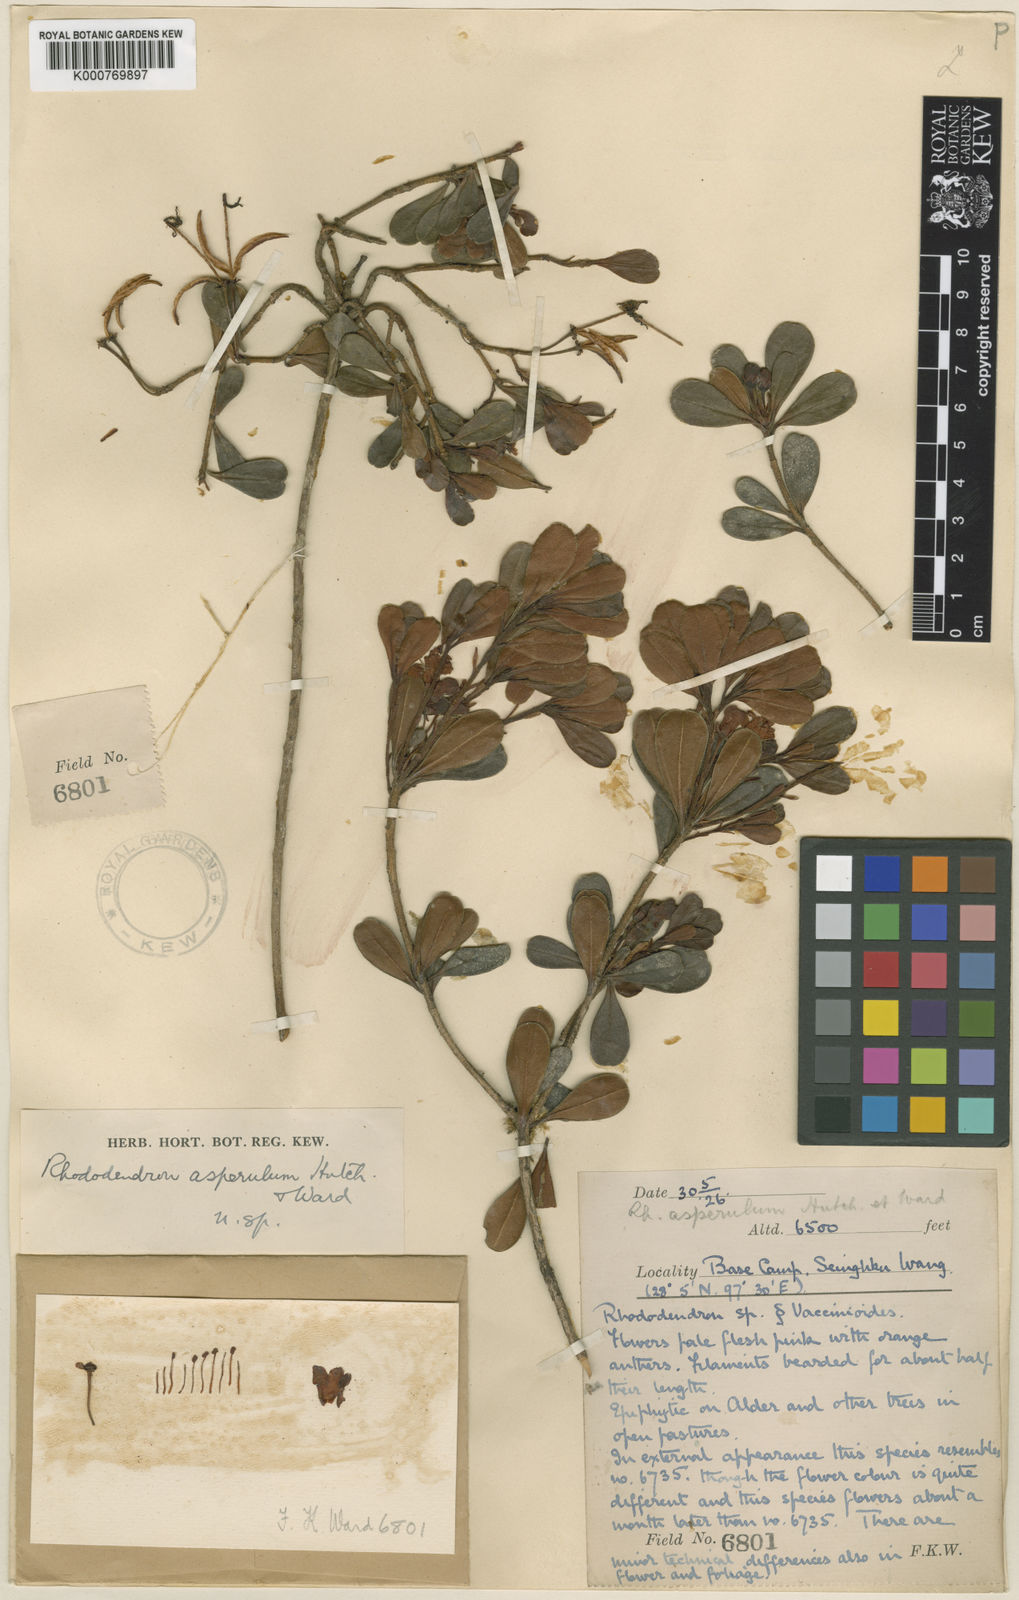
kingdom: Plantae
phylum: Tracheophyta
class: Magnoliopsida
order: Ericales
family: Ericaceae
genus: Rhododendron
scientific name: Rhododendron
